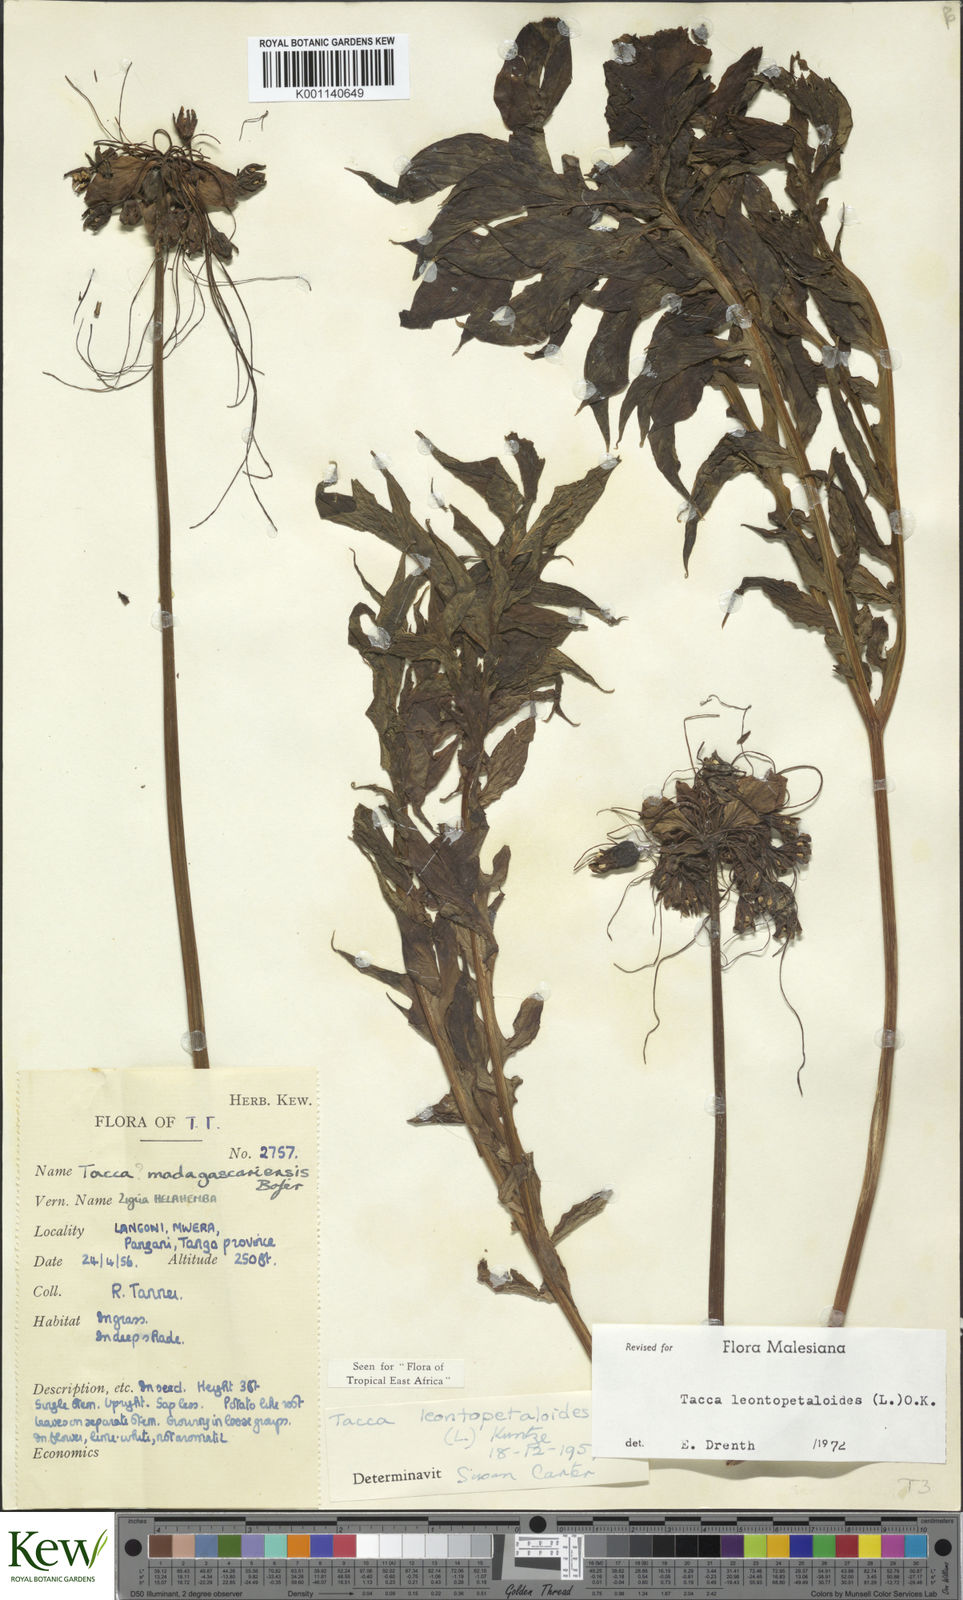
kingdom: Plantae
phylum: Tracheophyta
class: Liliopsida
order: Dioscoreales
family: Dioscoreaceae
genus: Tacca
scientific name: Tacca leontopetaloides
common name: Arrowroot
